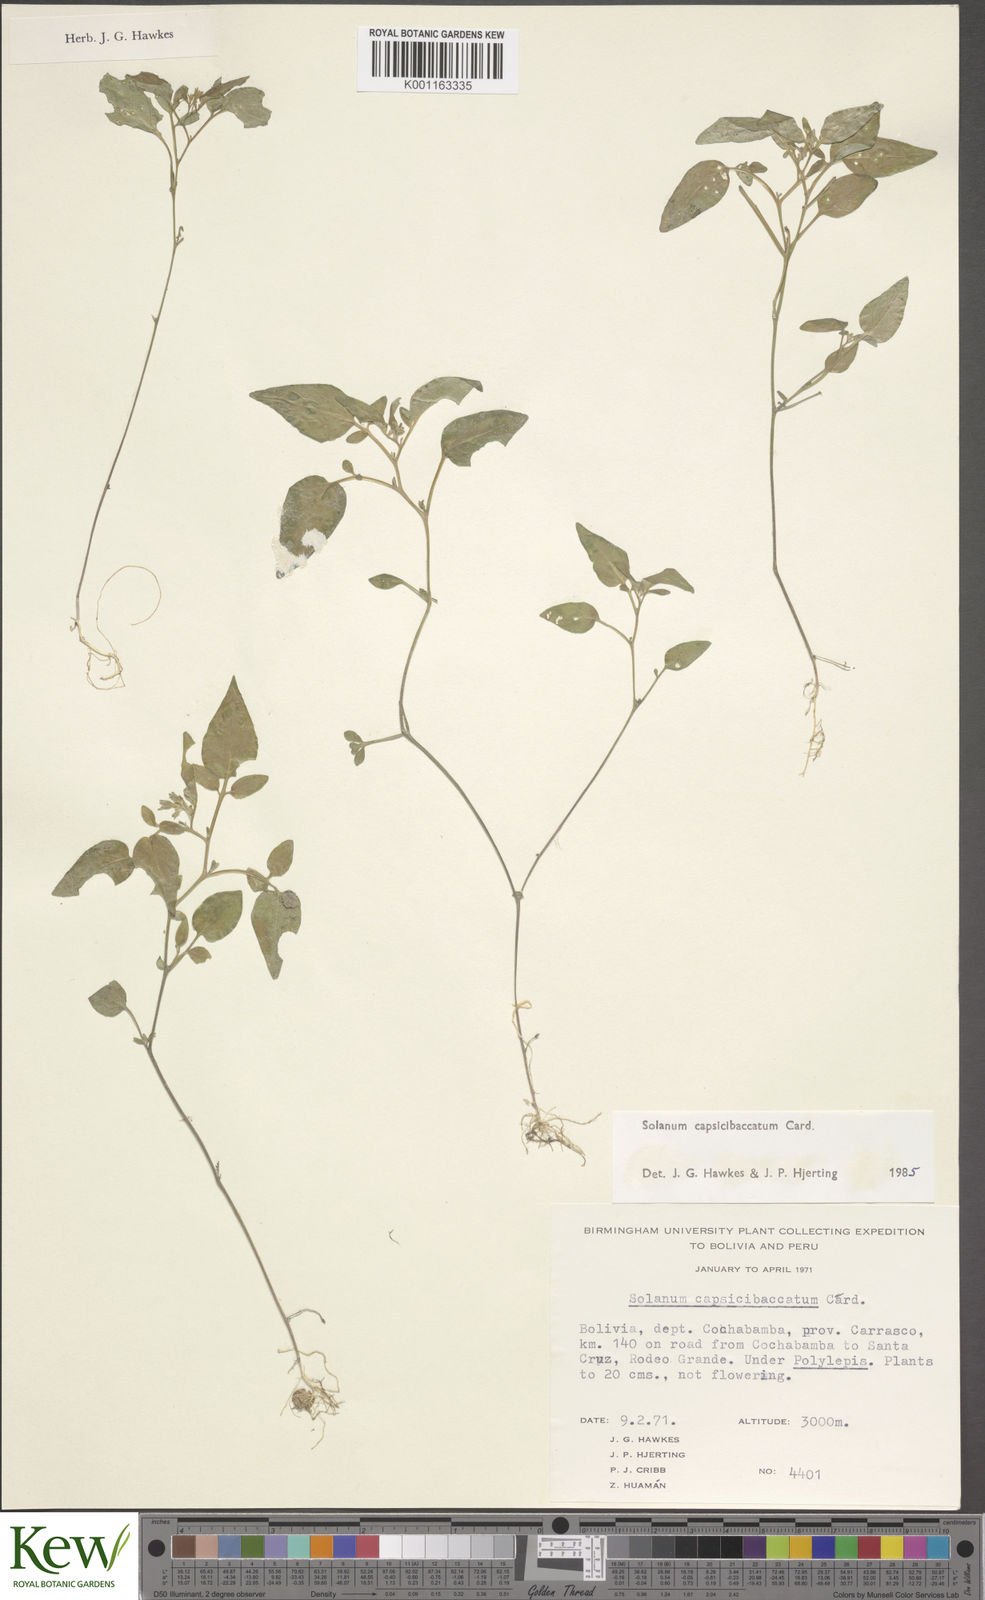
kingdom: Plantae
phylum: Tracheophyta
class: Magnoliopsida
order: Solanales
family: Solanaceae
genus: Solanum
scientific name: Solanum stipuloideum
